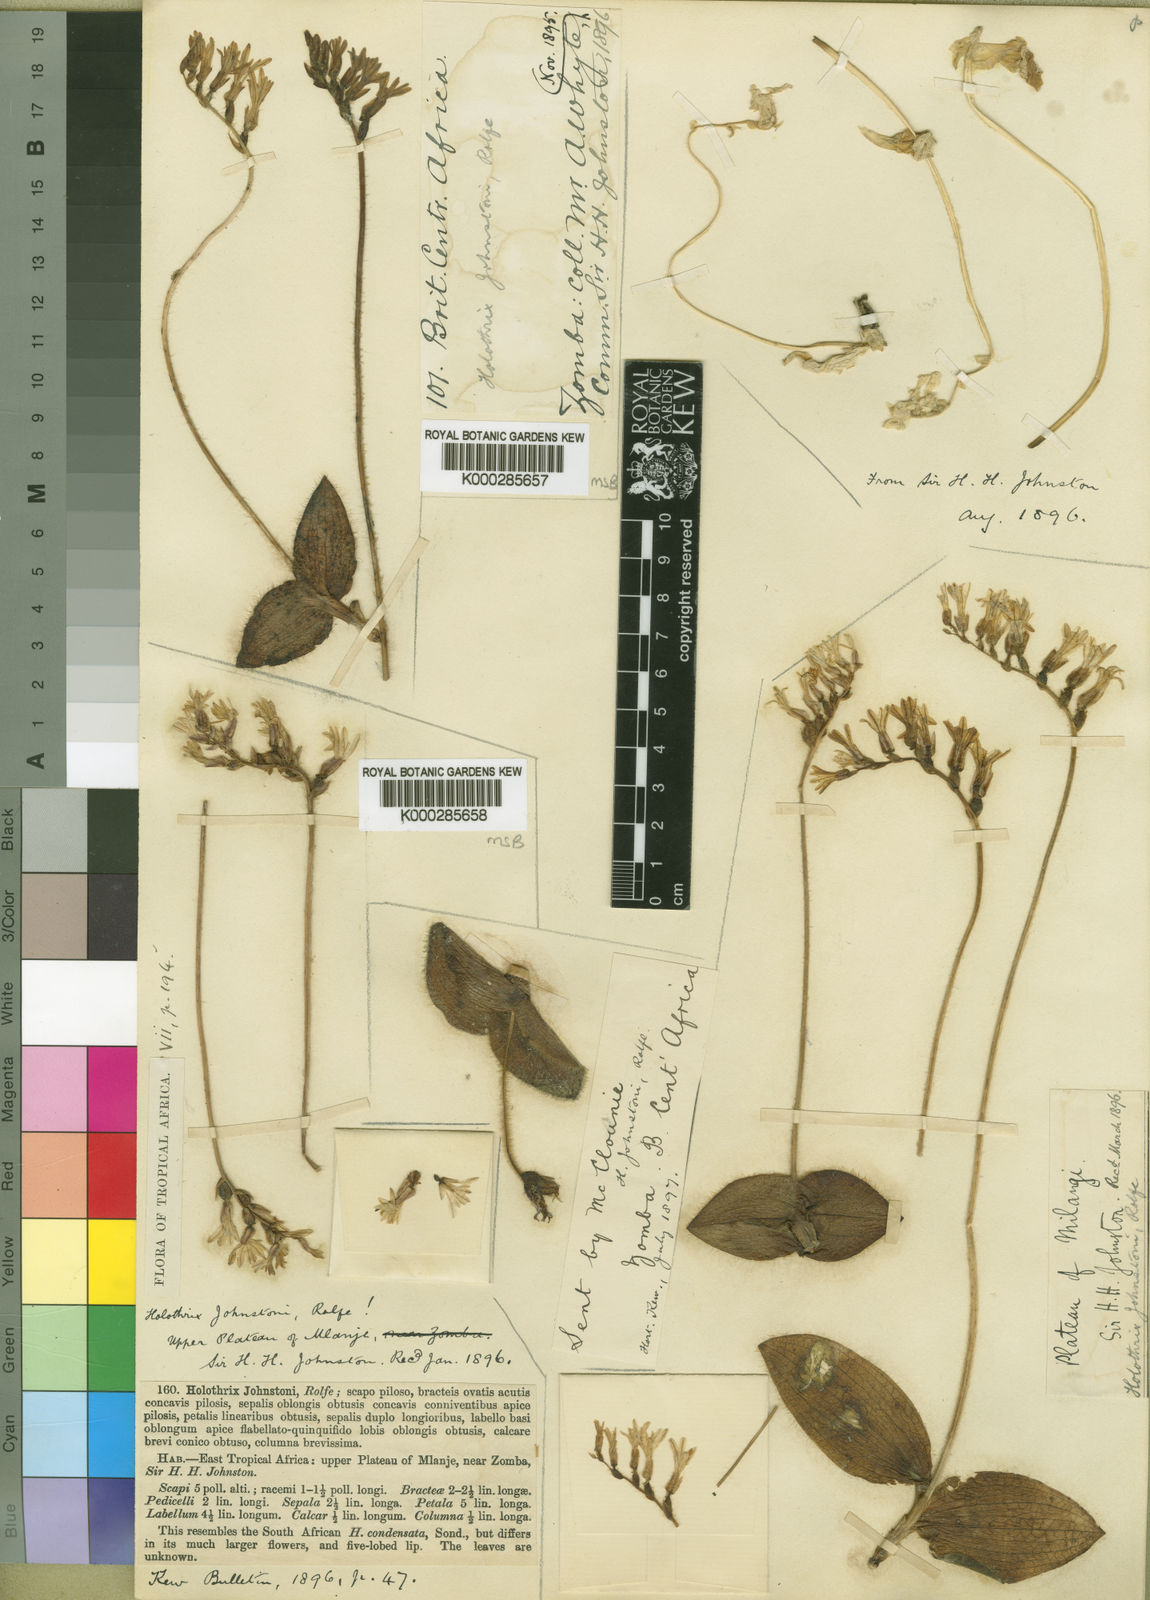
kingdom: Plantae
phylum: Tracheophyta
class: Liliopsida
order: Asparagales
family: Orchidaceae
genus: Holothrix
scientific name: Holothrix johnstonii
